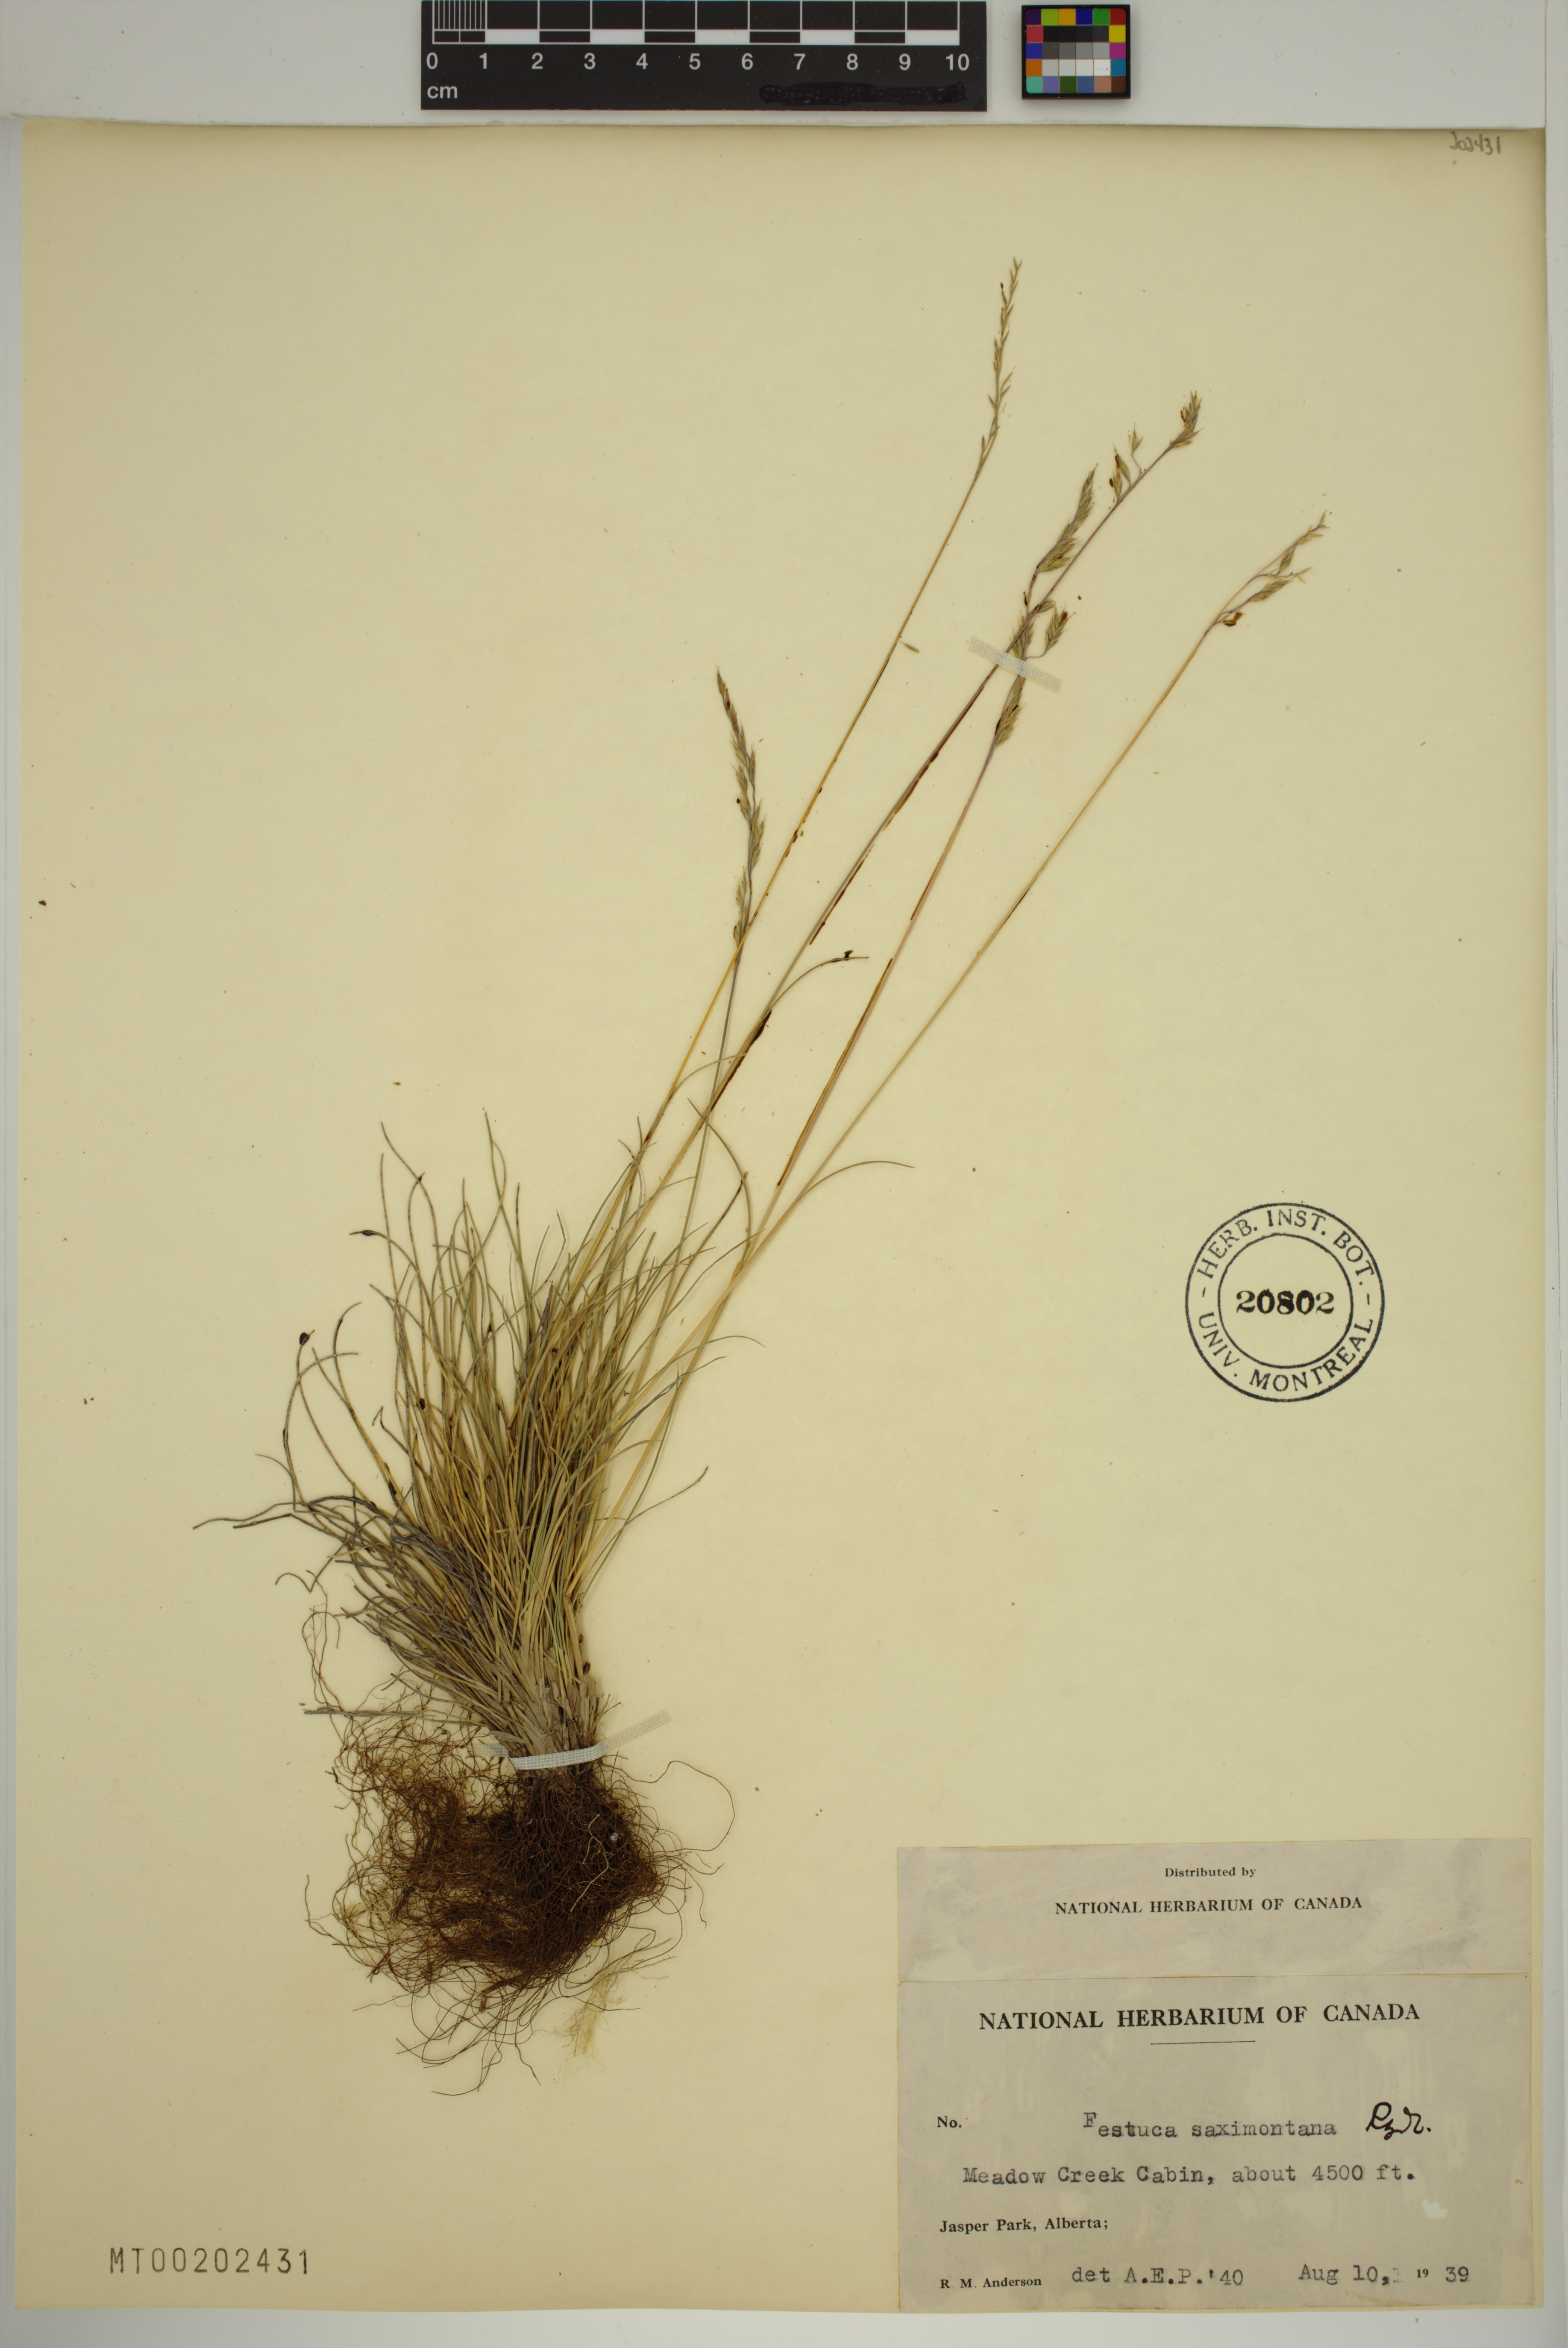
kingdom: Plantae
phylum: Tracheophyta
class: Liliopsida
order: Poales
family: Poaceae
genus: Festuca
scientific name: Festuca saximontana
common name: Mountain fescue
